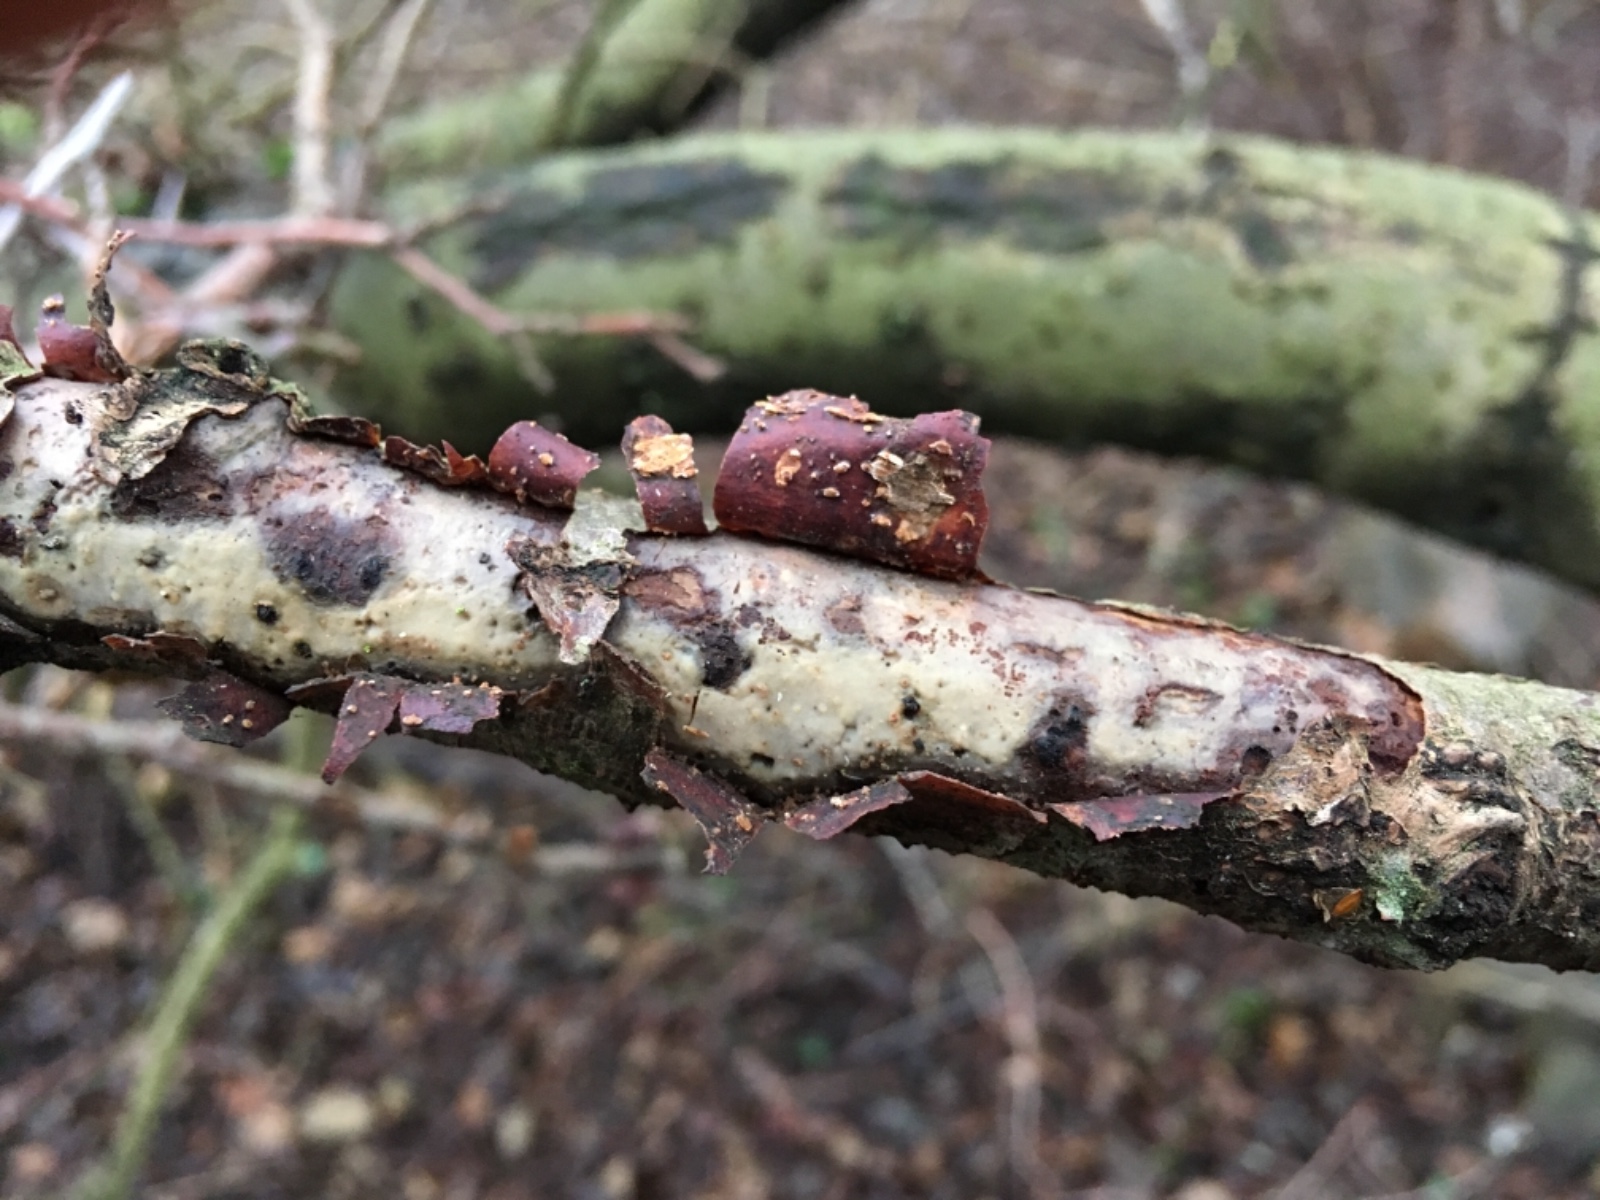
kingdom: Fungi
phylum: Basidiomycota
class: Agaricomycetes
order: Corticiales
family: Vuilleminiaceae
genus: Vuilleminia
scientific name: Vuilleminia comedens
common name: almindelig barksprænger
